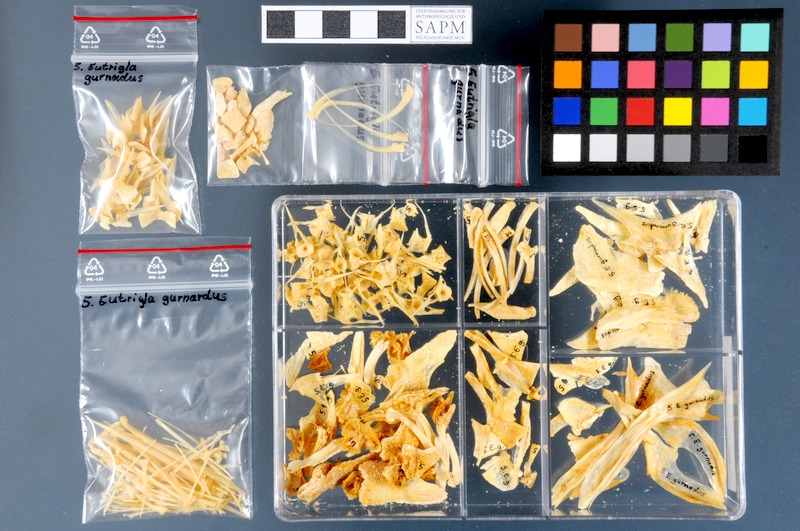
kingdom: Animalia
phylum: Chordata
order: Scorpaeniformes
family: Triglidae
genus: Eutrigla
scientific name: Eutrigla gurnardus
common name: Grey gurnard
